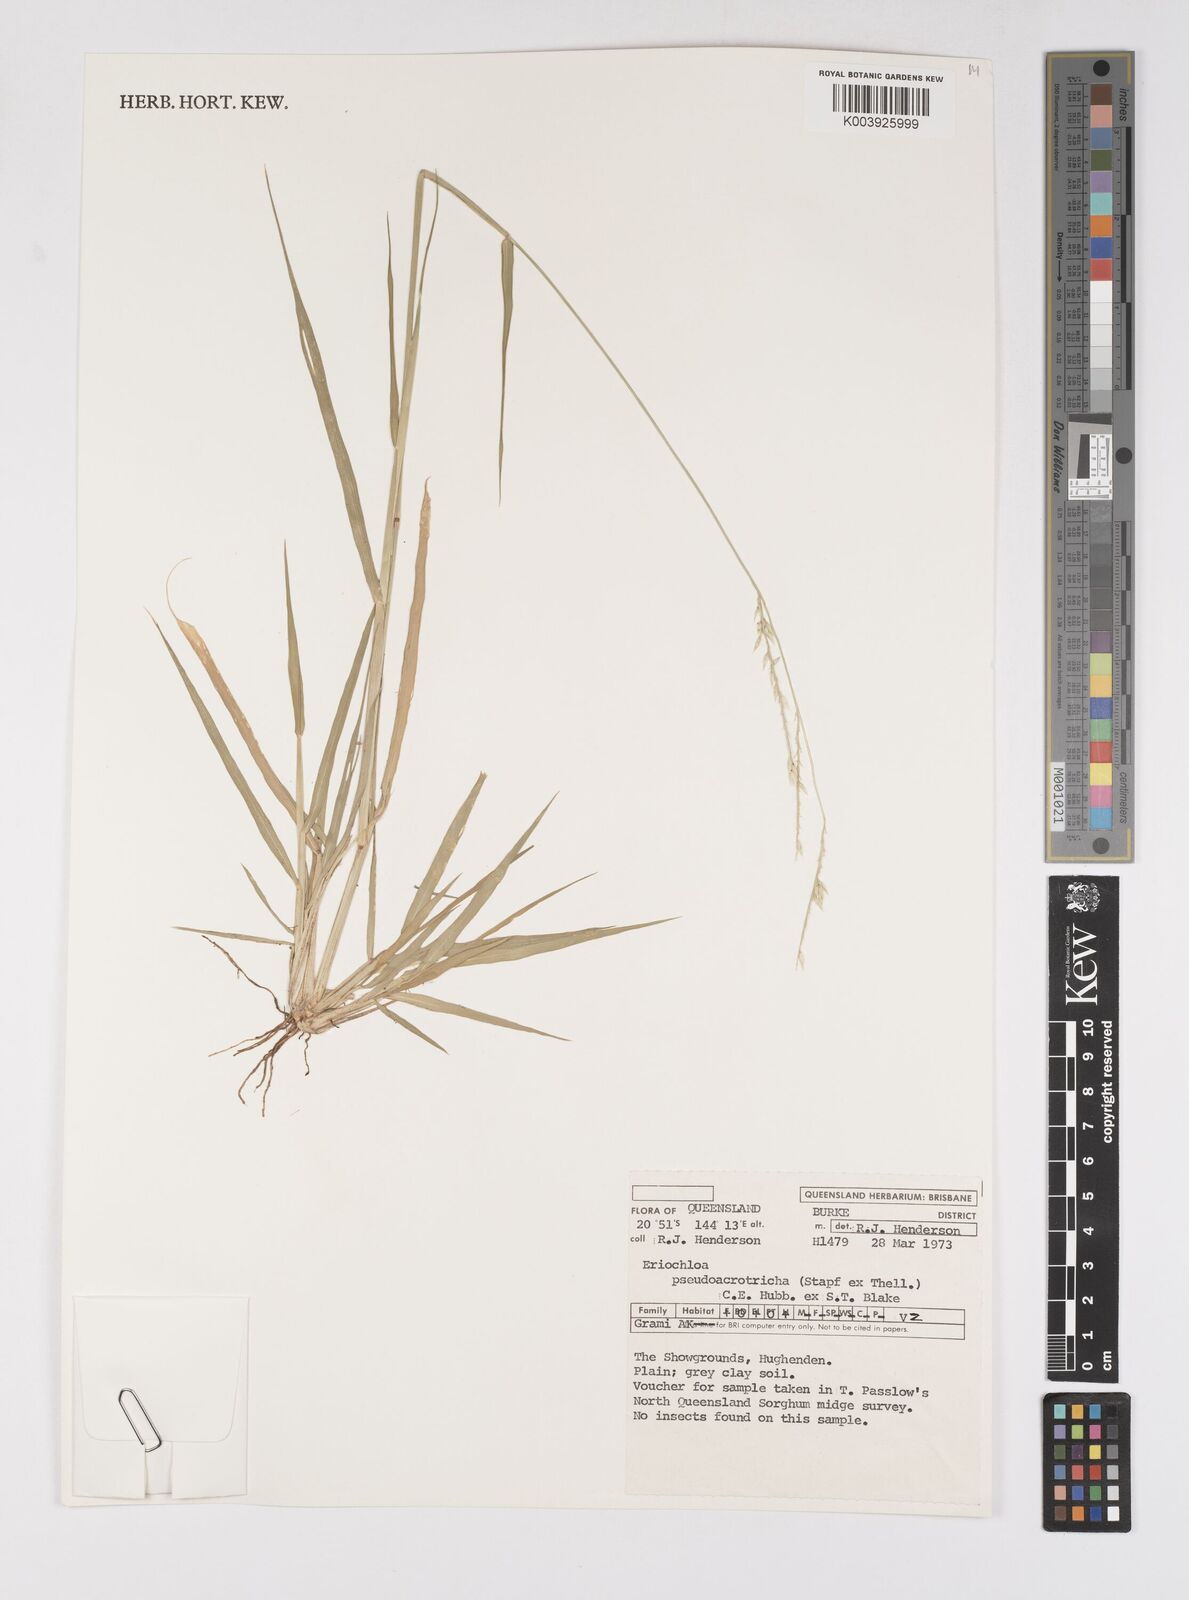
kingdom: Plantae
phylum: Tracheophyta
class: Liliopsida
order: Poales
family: Poaceae
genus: Eriochloa
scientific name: Eriochloa pseudoacrotricha
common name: Perennial cup-grass
